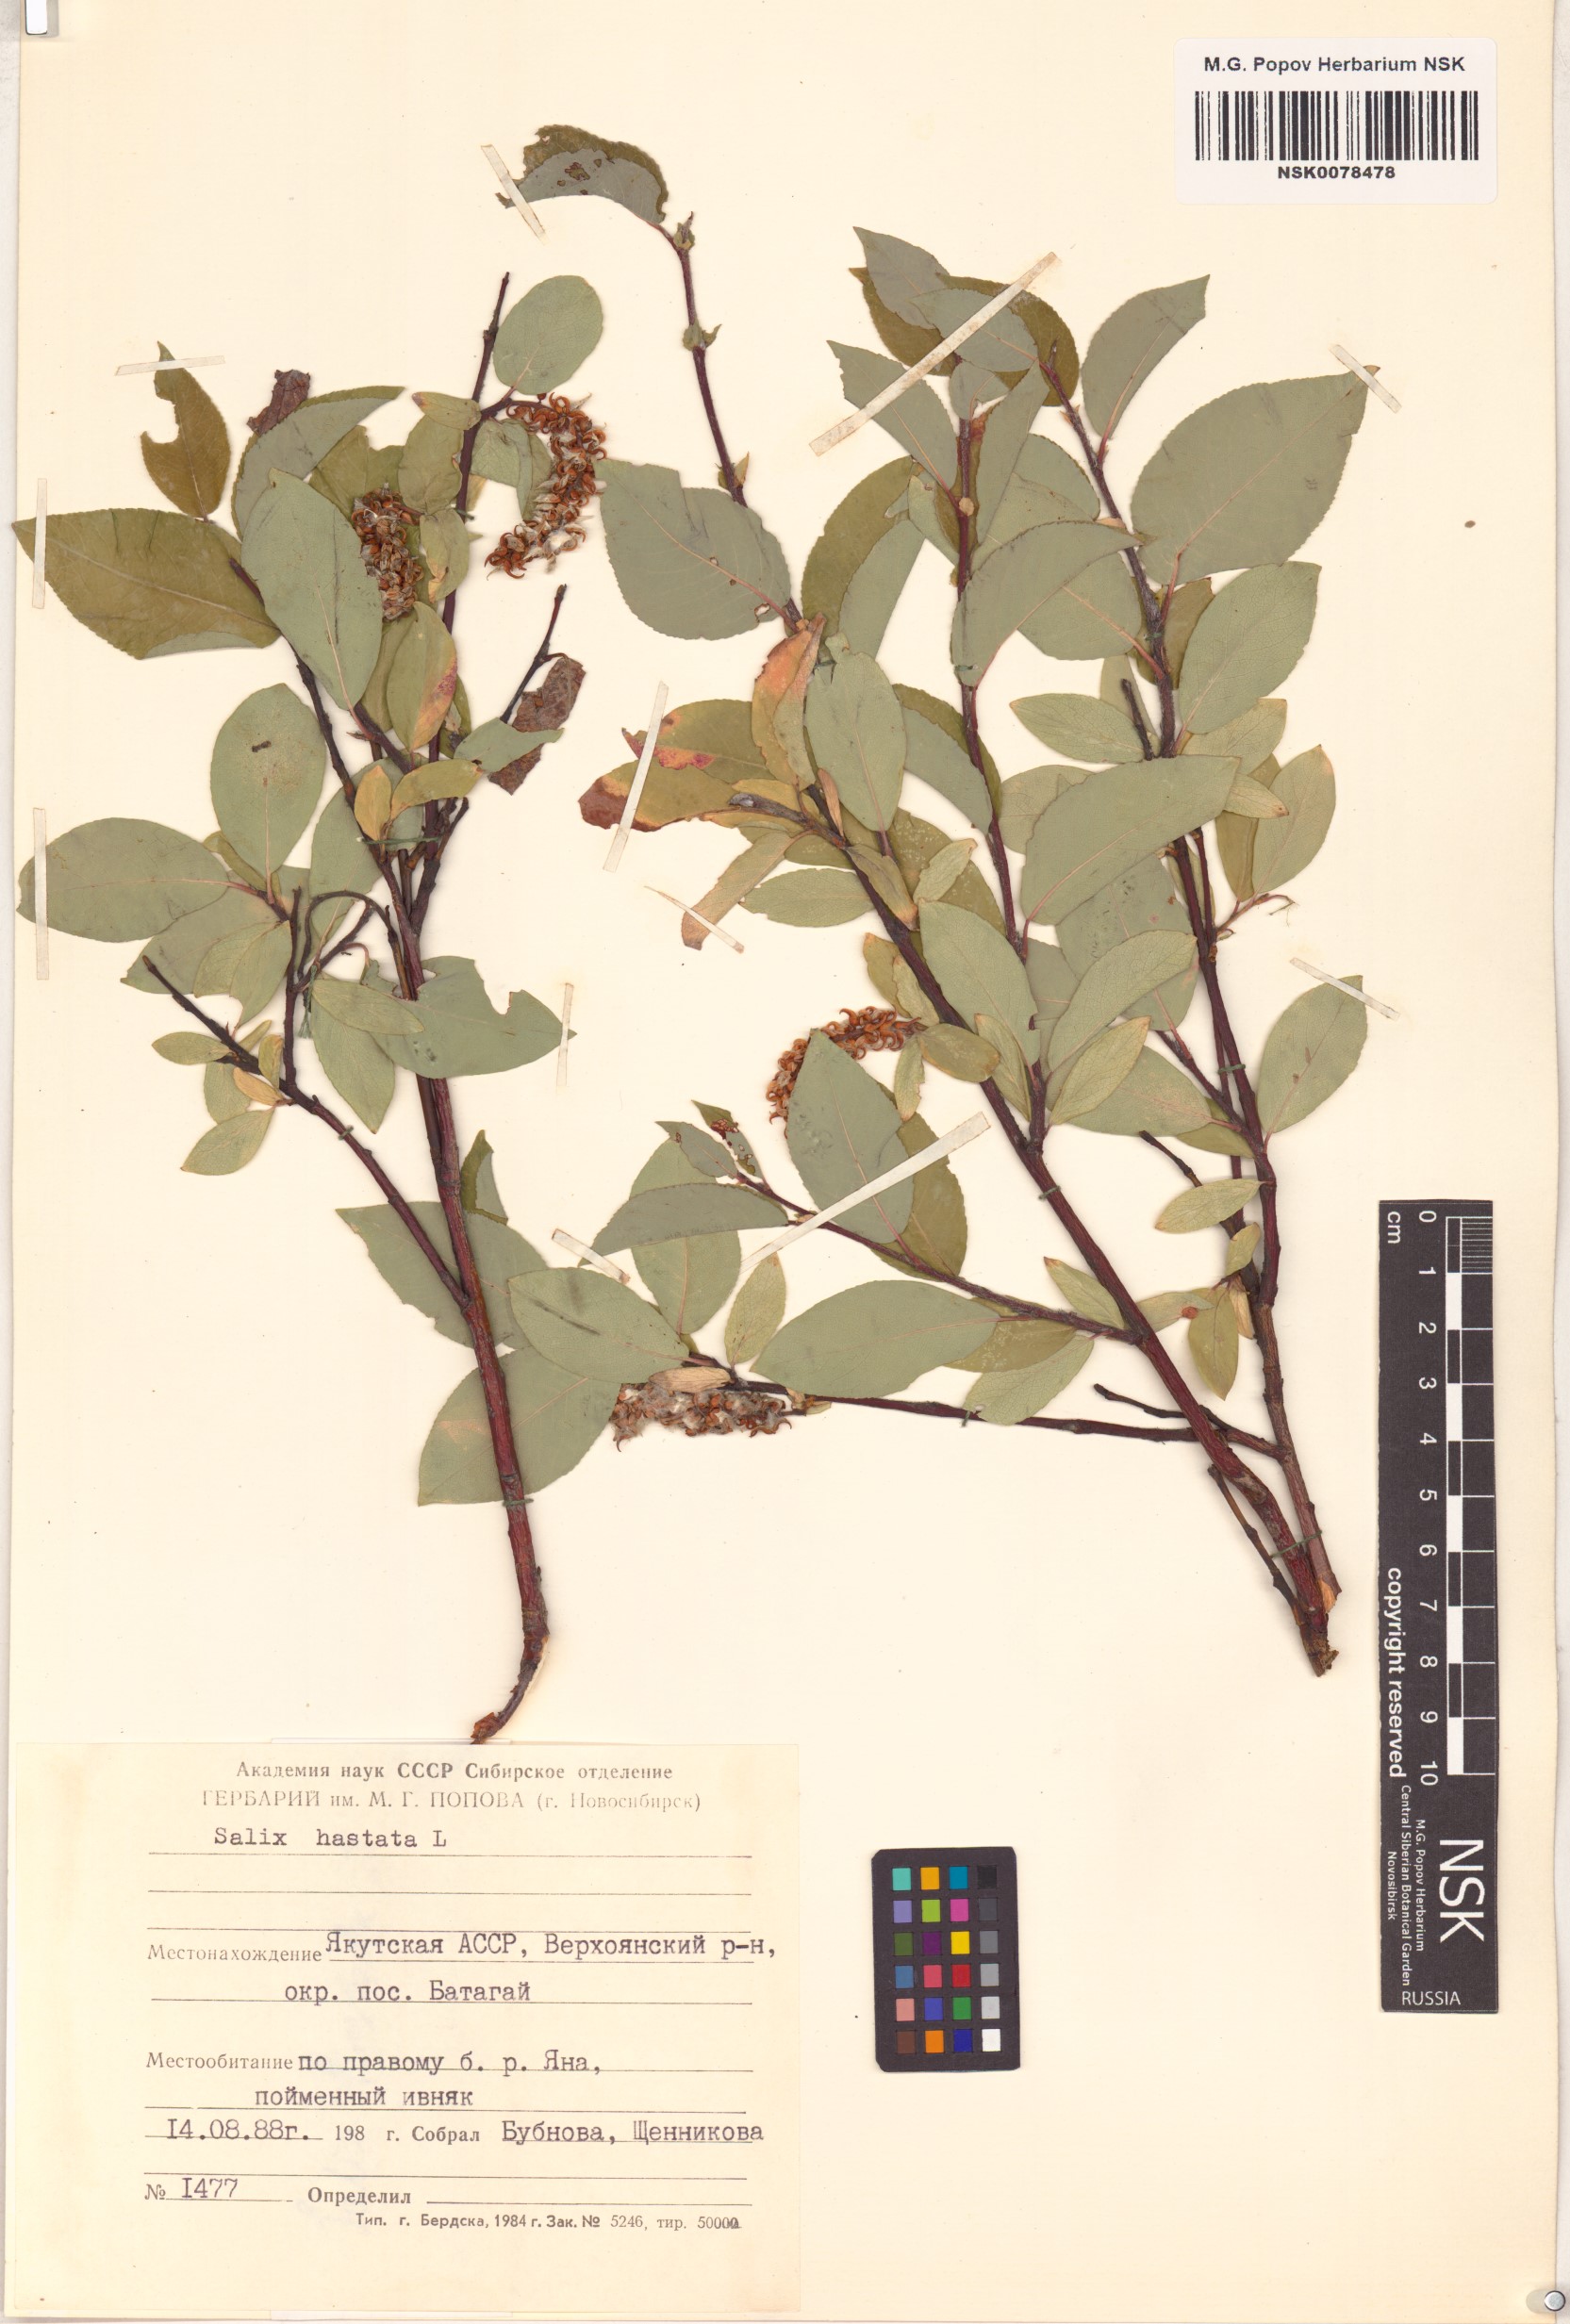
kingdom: Plantae
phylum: Tracheophyta
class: Magnoliopsida
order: Malpighiales
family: Salicaceae
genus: Salix
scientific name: Salix hastata
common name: Halberd willow
